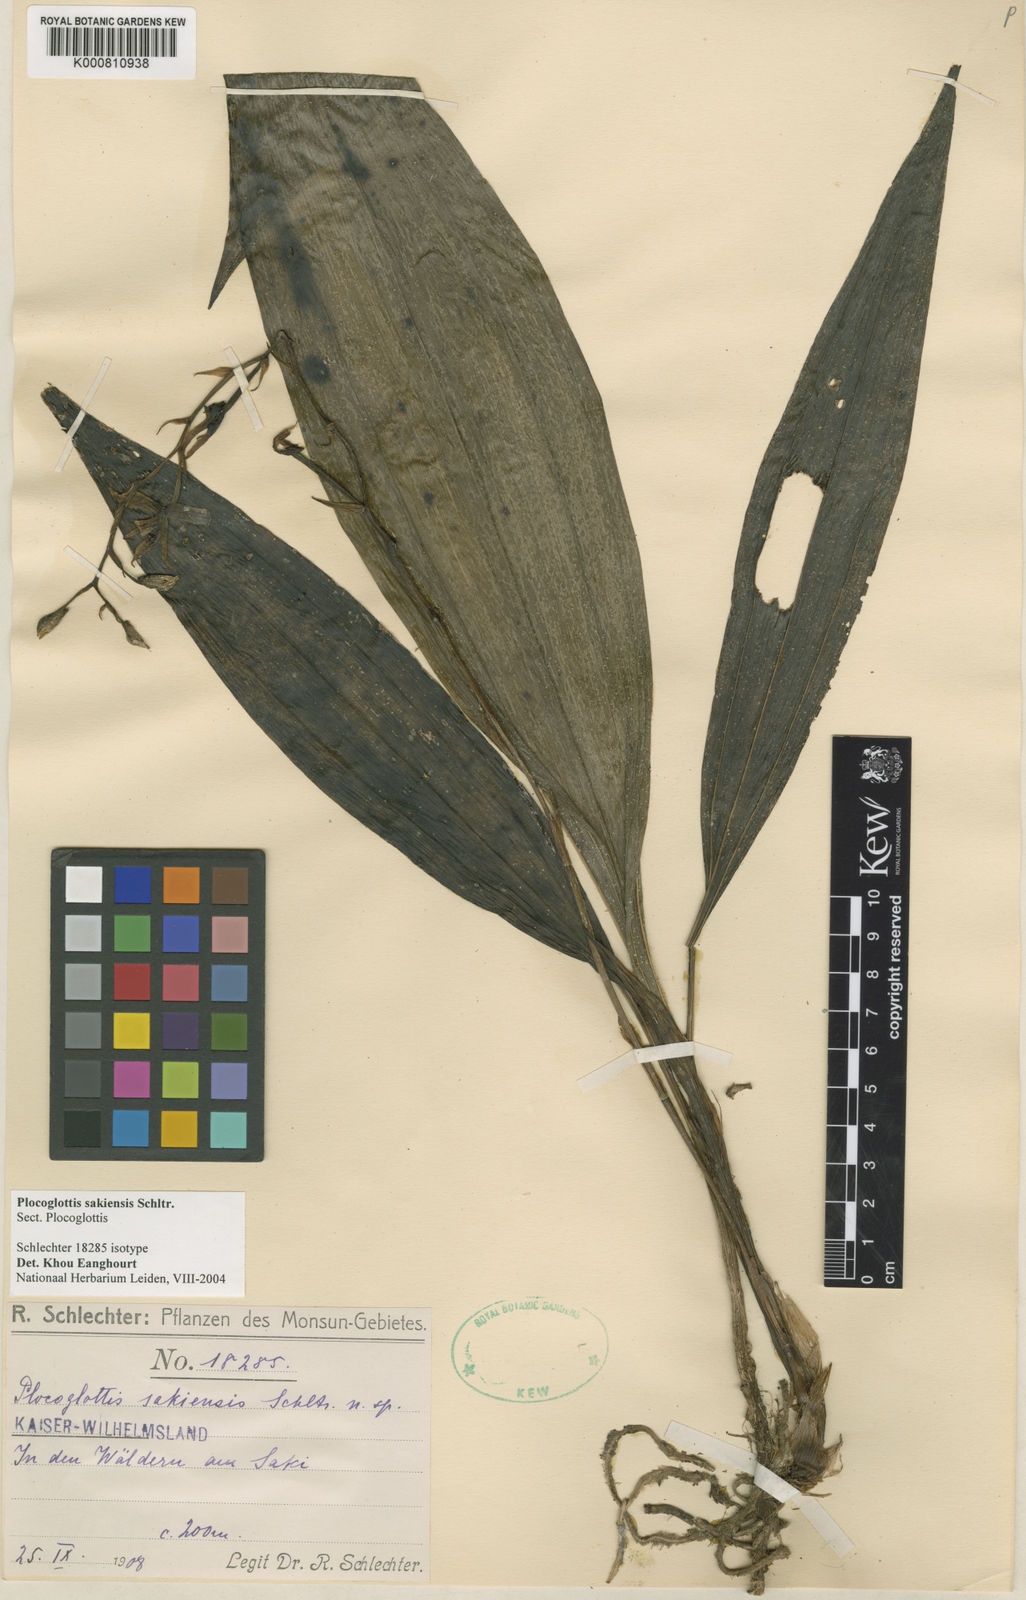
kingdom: Plantae
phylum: Tracheophyta
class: Liliopsida
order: Asparagales
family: Orchidaceae
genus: Plocoglottis
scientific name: Plocoglottis sakiensis
